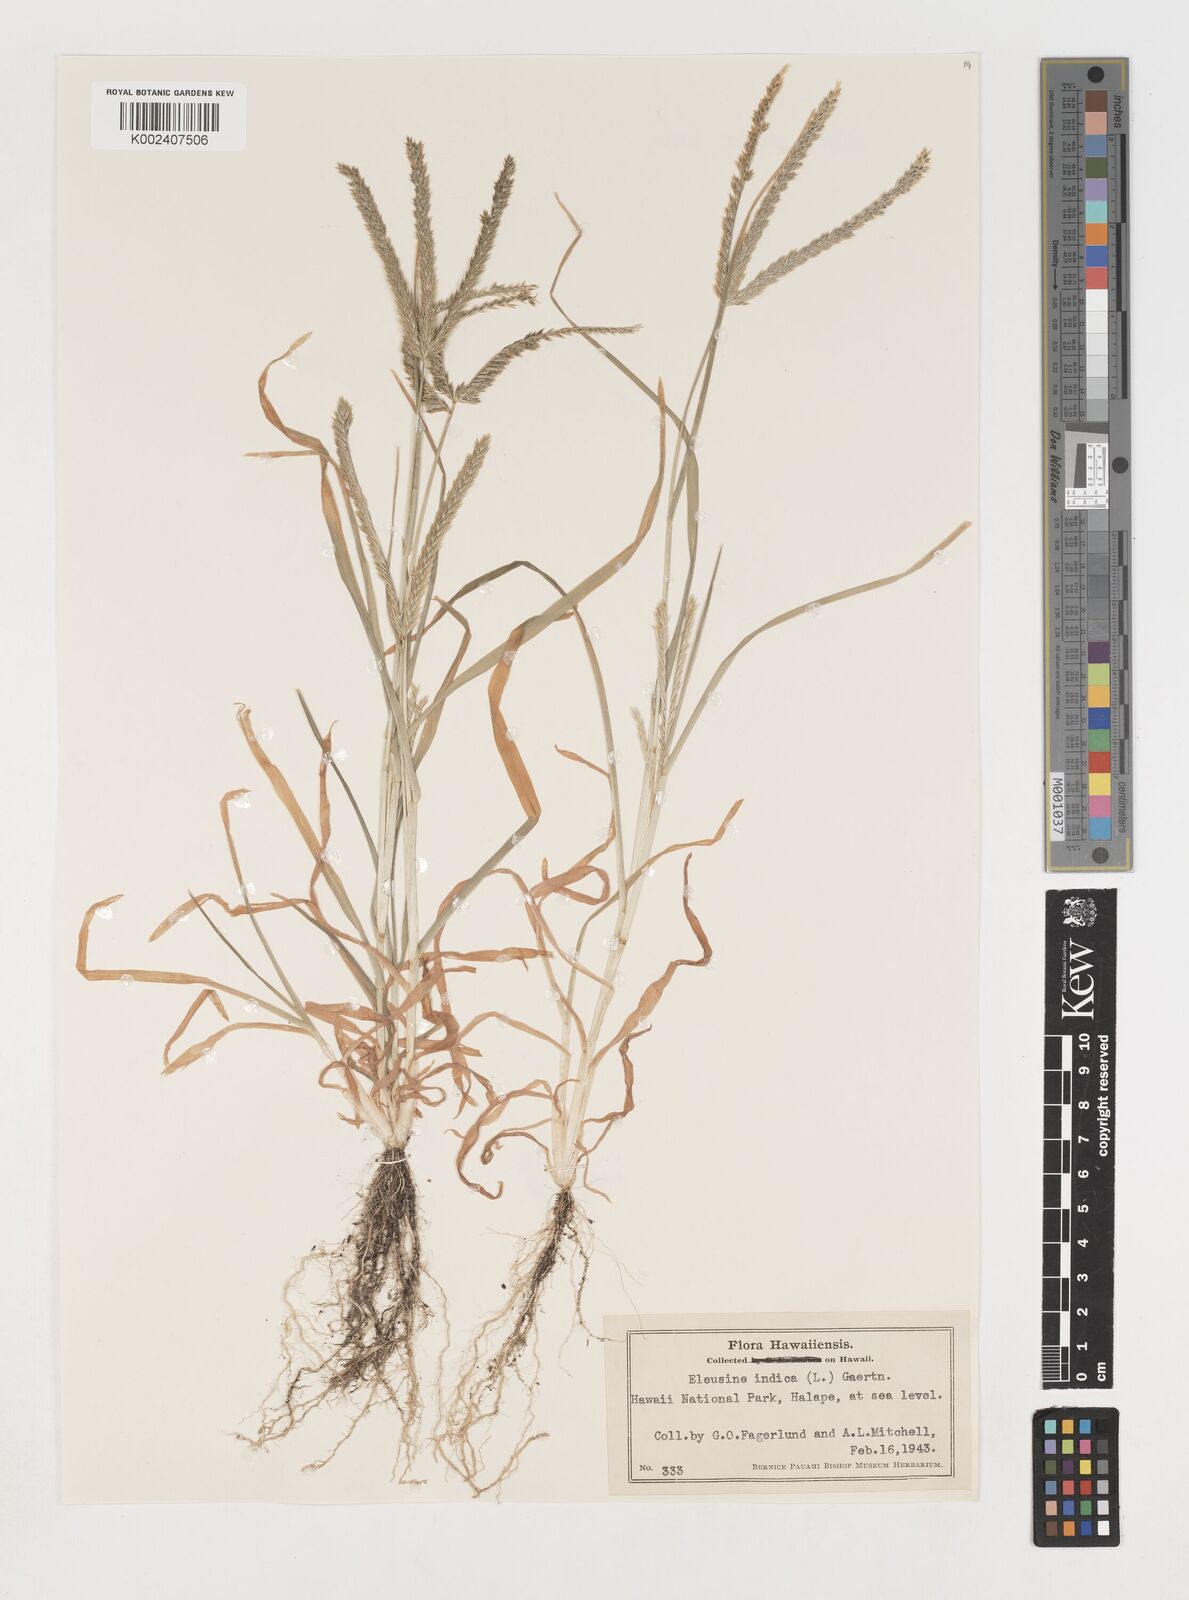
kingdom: Plantae
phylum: Tracheophyta
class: Liliopsida
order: Poales
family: Poaceae
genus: Eleusine
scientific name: Eleusine indica
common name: Yard-grass
